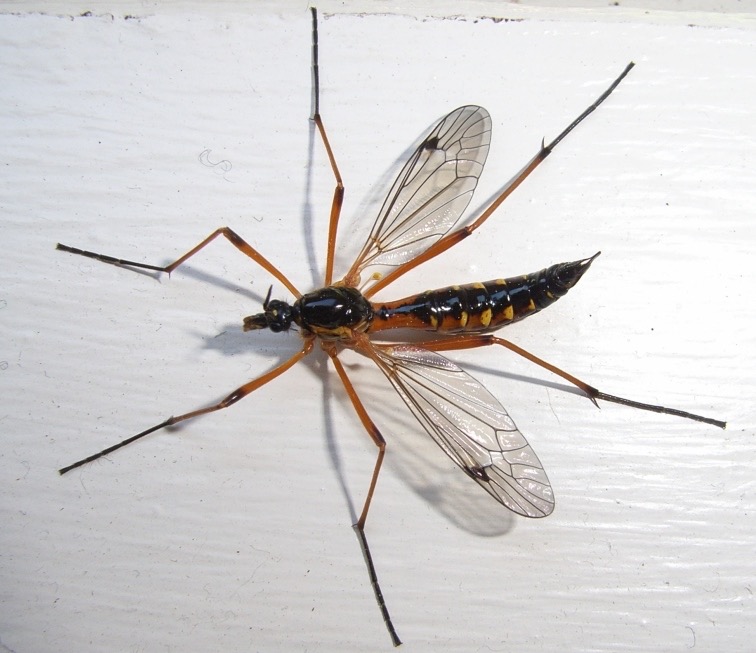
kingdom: Animalia
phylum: Arthropoda
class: Insecta
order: Diptera
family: Tipulidae
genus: Ctenophora
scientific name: Ctenophora pectinicornis
